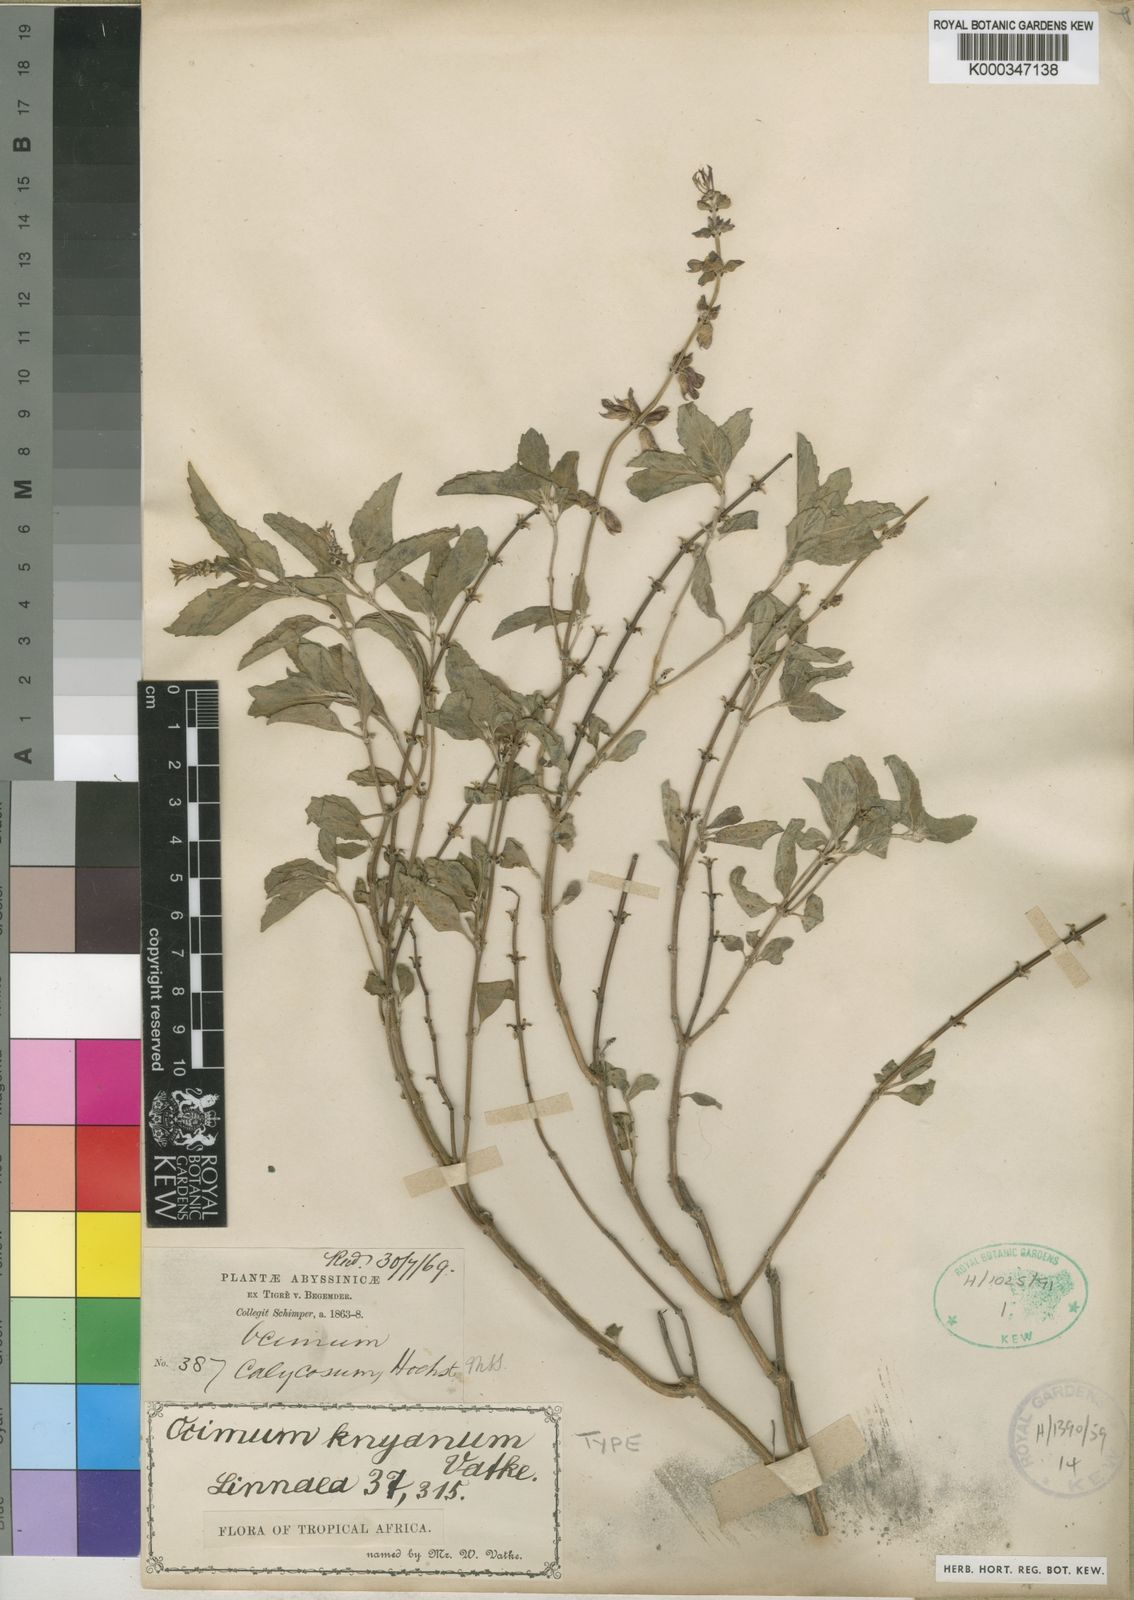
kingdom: Plantae
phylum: Tracheophyta
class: Magnoliopsida
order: Lamiales
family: Lamiaceae
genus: Ocimum
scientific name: Ocimum filamentosum
